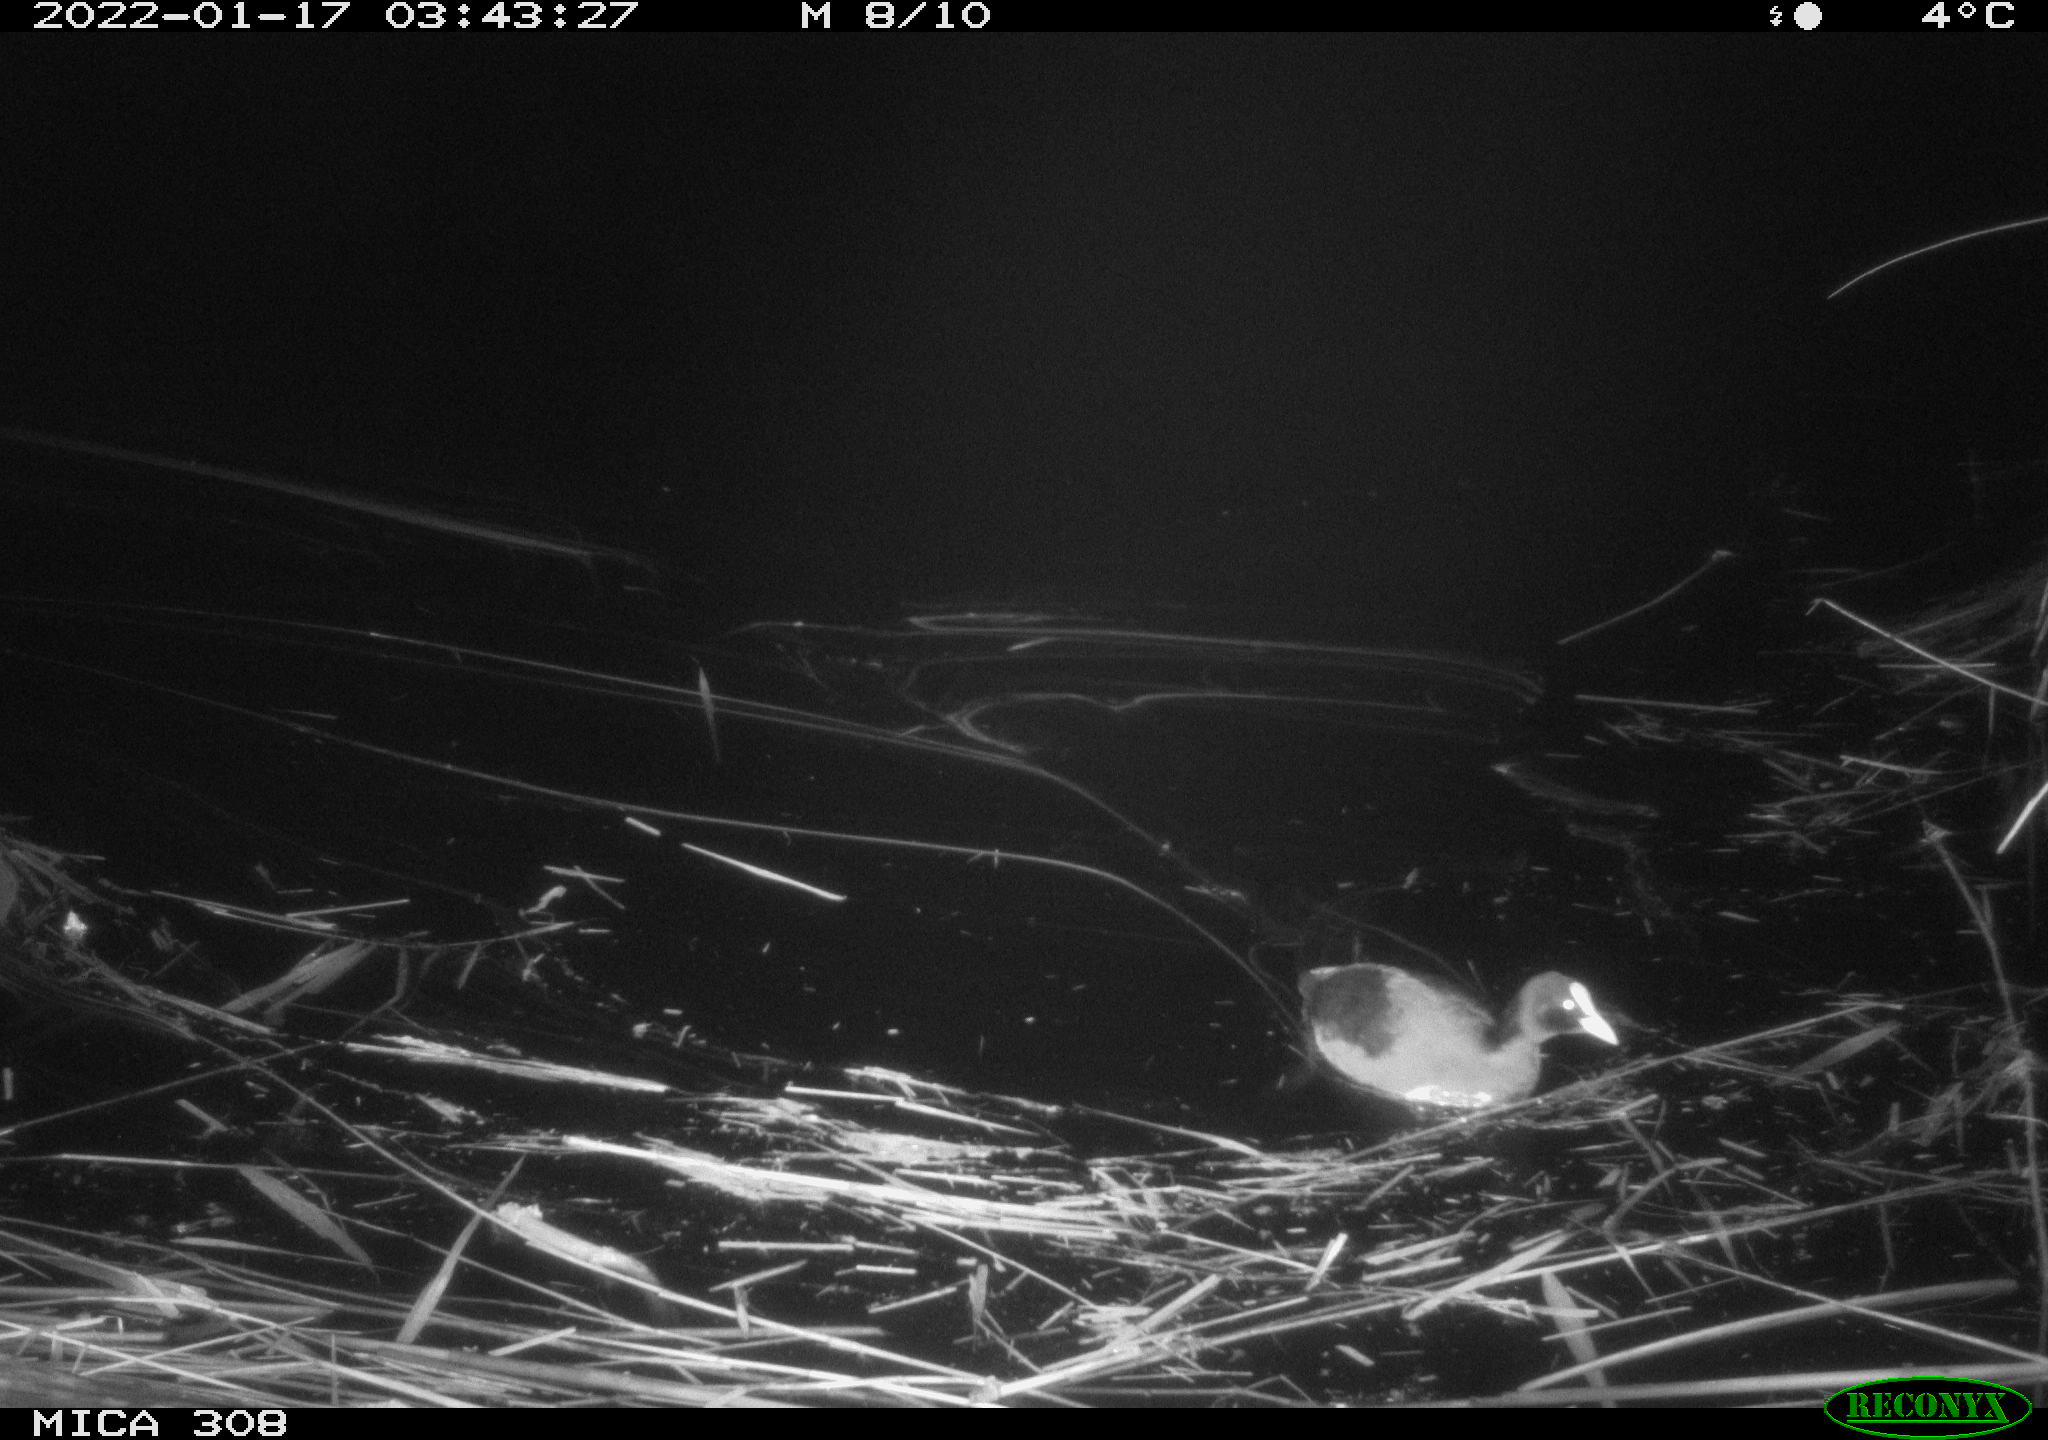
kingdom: Animalia
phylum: Chordata
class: Aves
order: Anseriformes
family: Anatidae
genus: Anas
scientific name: Anas
